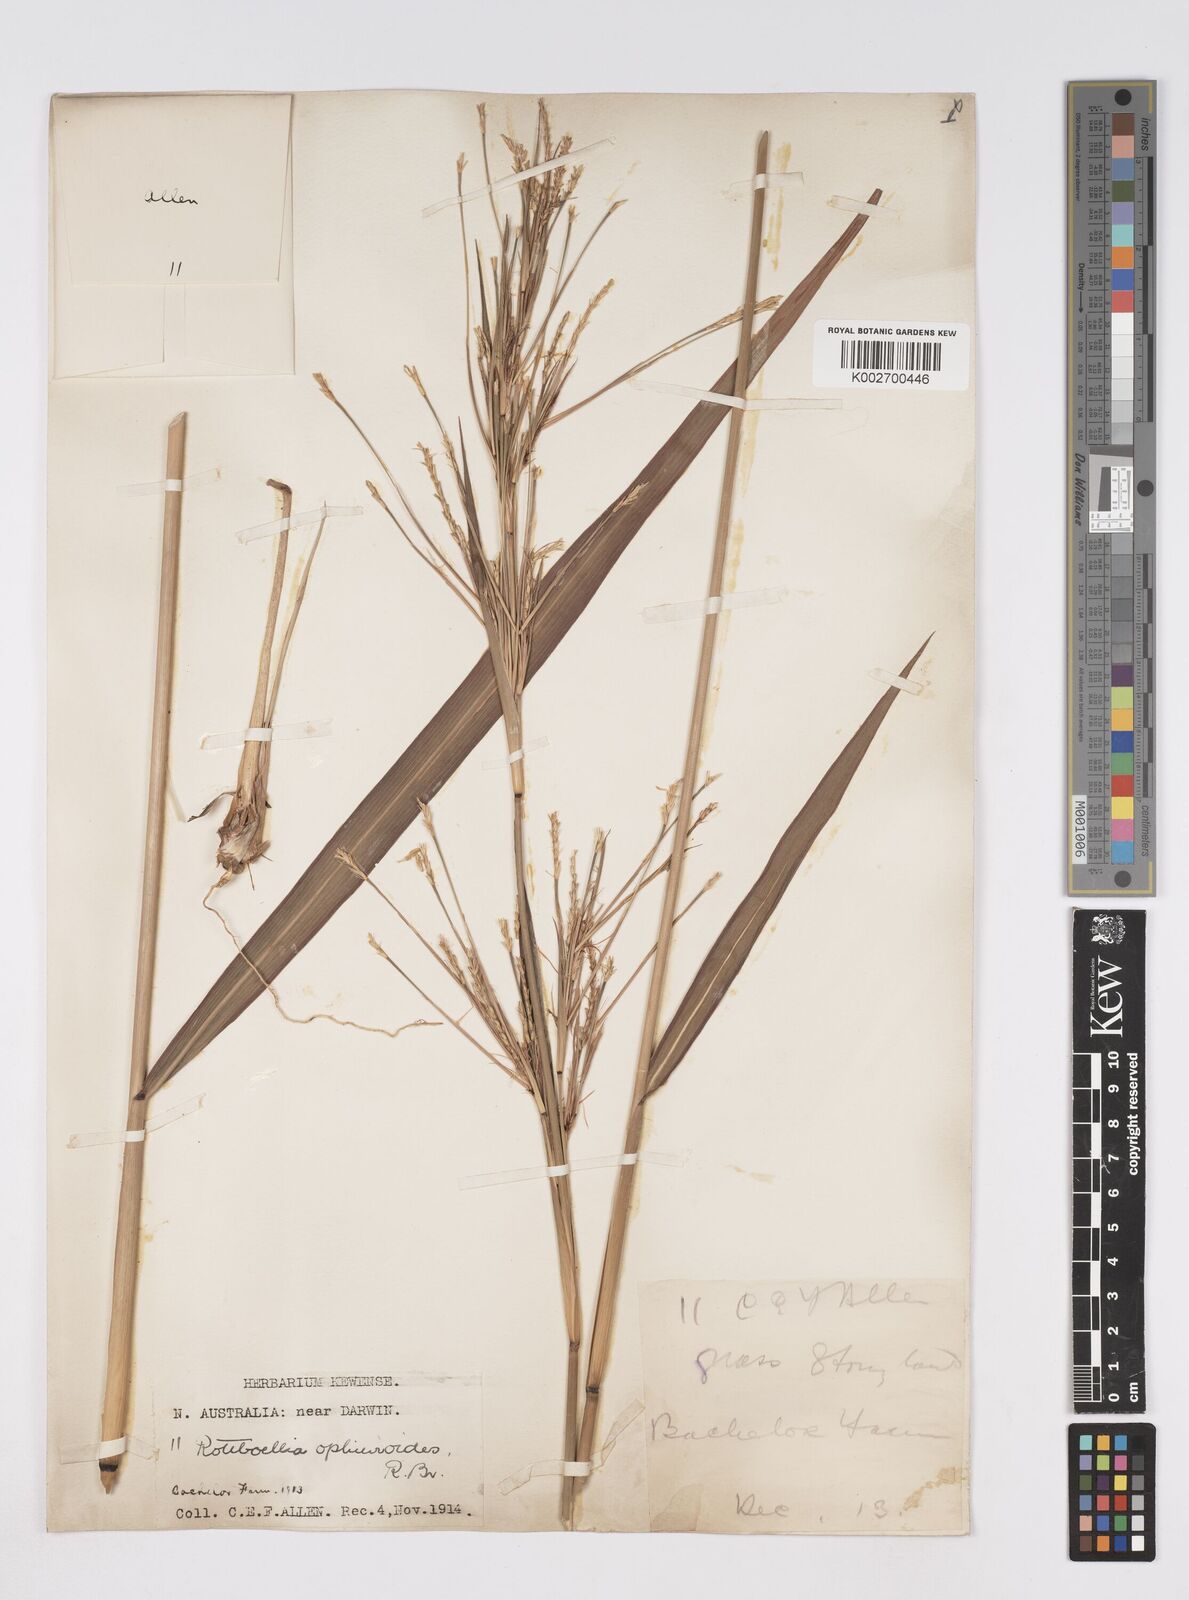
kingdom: Plantae
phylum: Tracheophyta
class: Liliopsida
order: Poales
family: Poaceae
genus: Rottboellia
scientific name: Rottboellia rottboellioides
